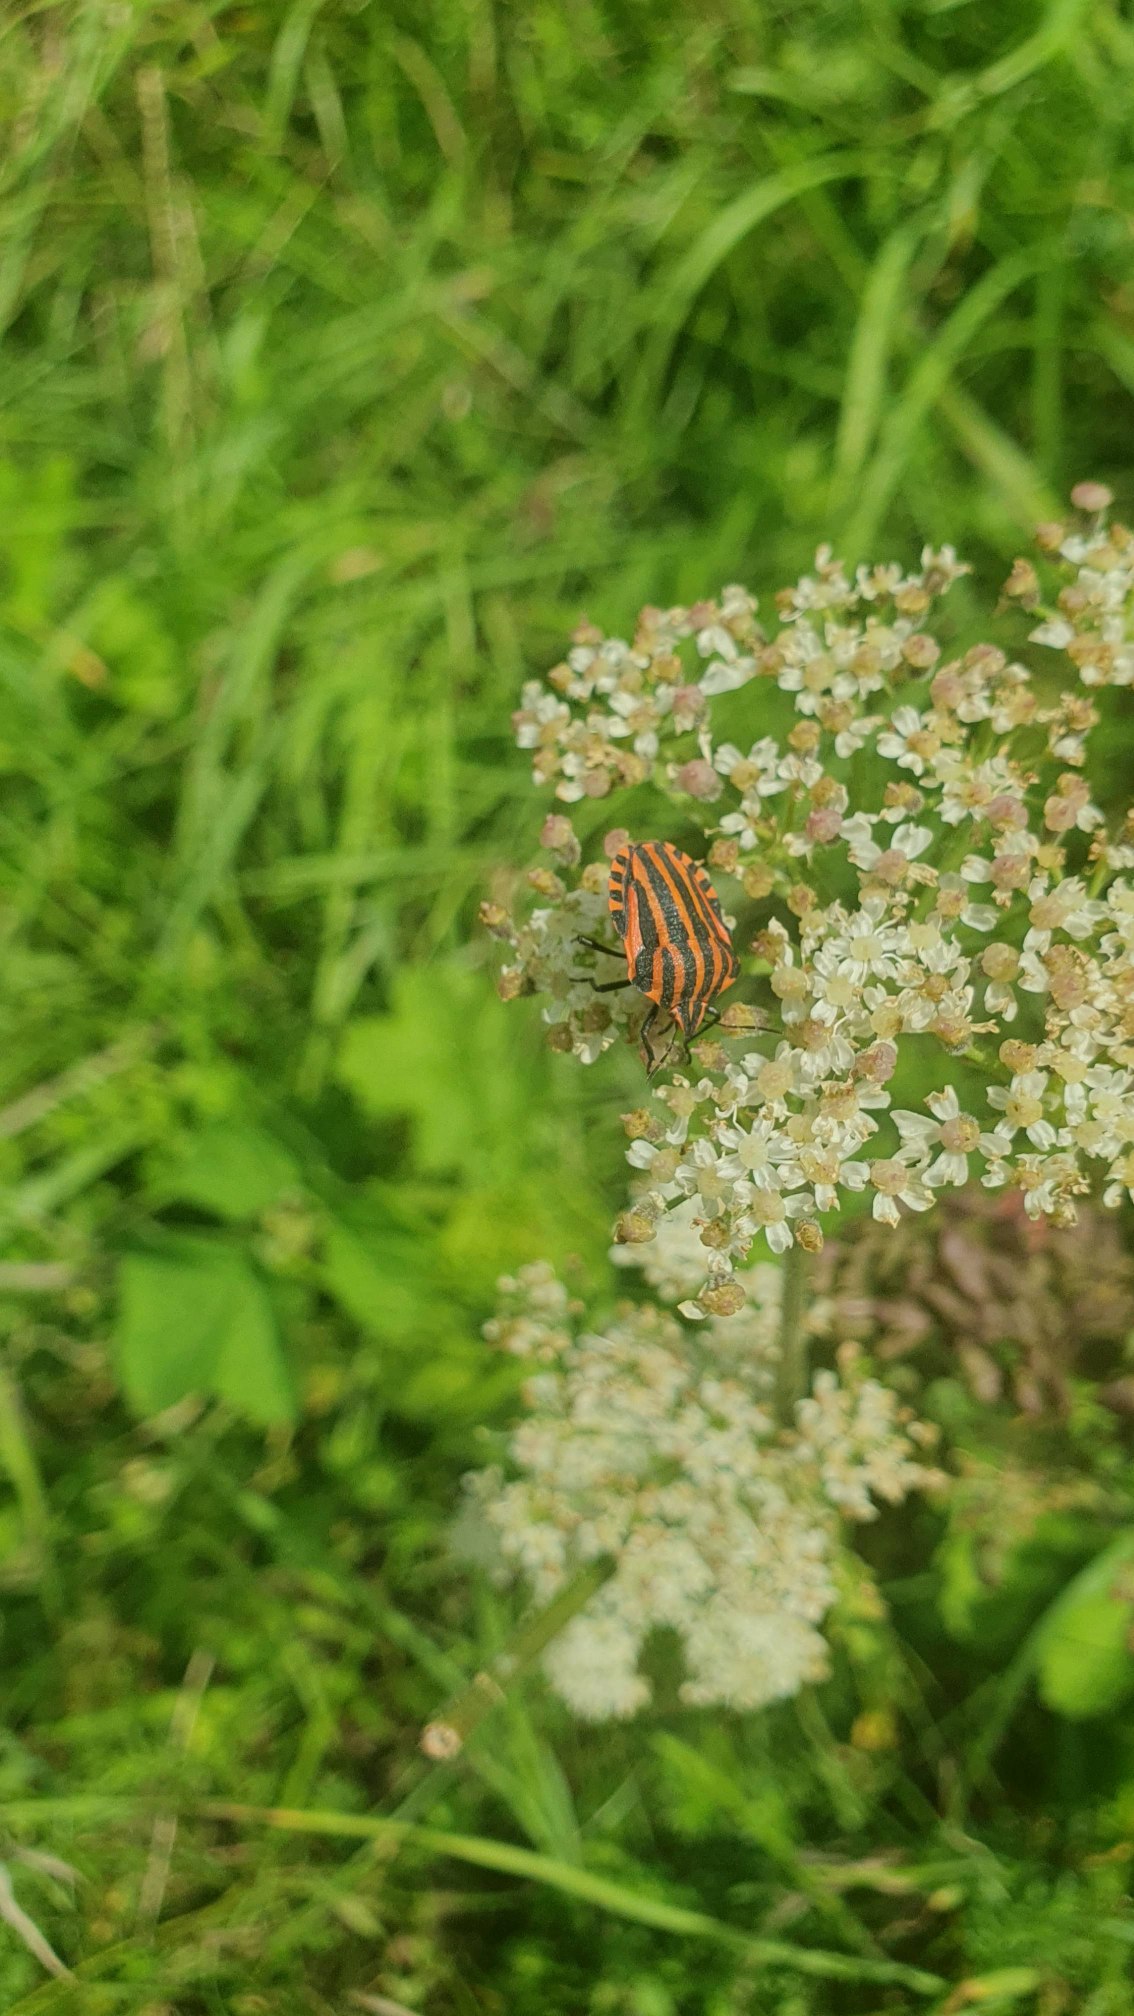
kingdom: Animalia
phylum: Arthropoda
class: Insecta
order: Hemiptera
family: Pentatomidae
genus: Graphosoma
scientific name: Graphosoma italicum
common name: Stribetæge
